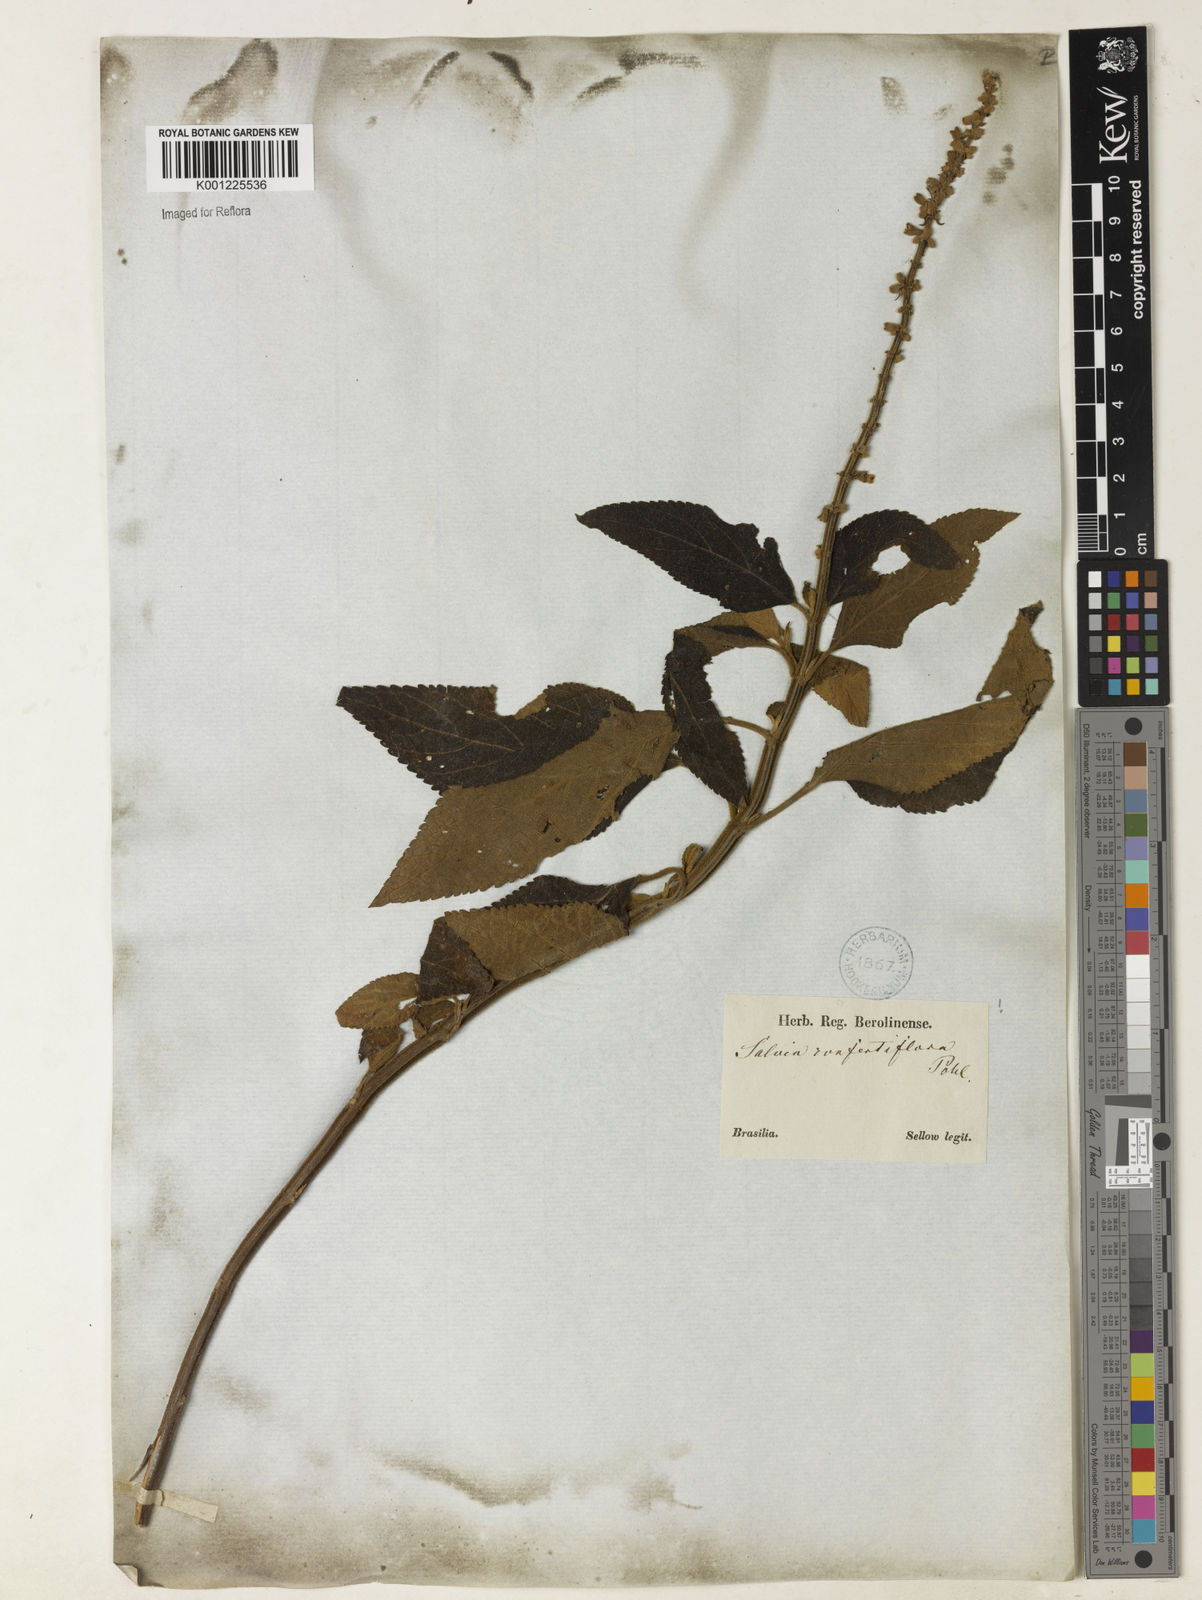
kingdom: Plantae
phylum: Tracheophyta
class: Magnoliopsida
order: Lamiales
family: Lamiaceae
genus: Salvia
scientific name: Salvia confertiflora
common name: Sabra-spike sage
